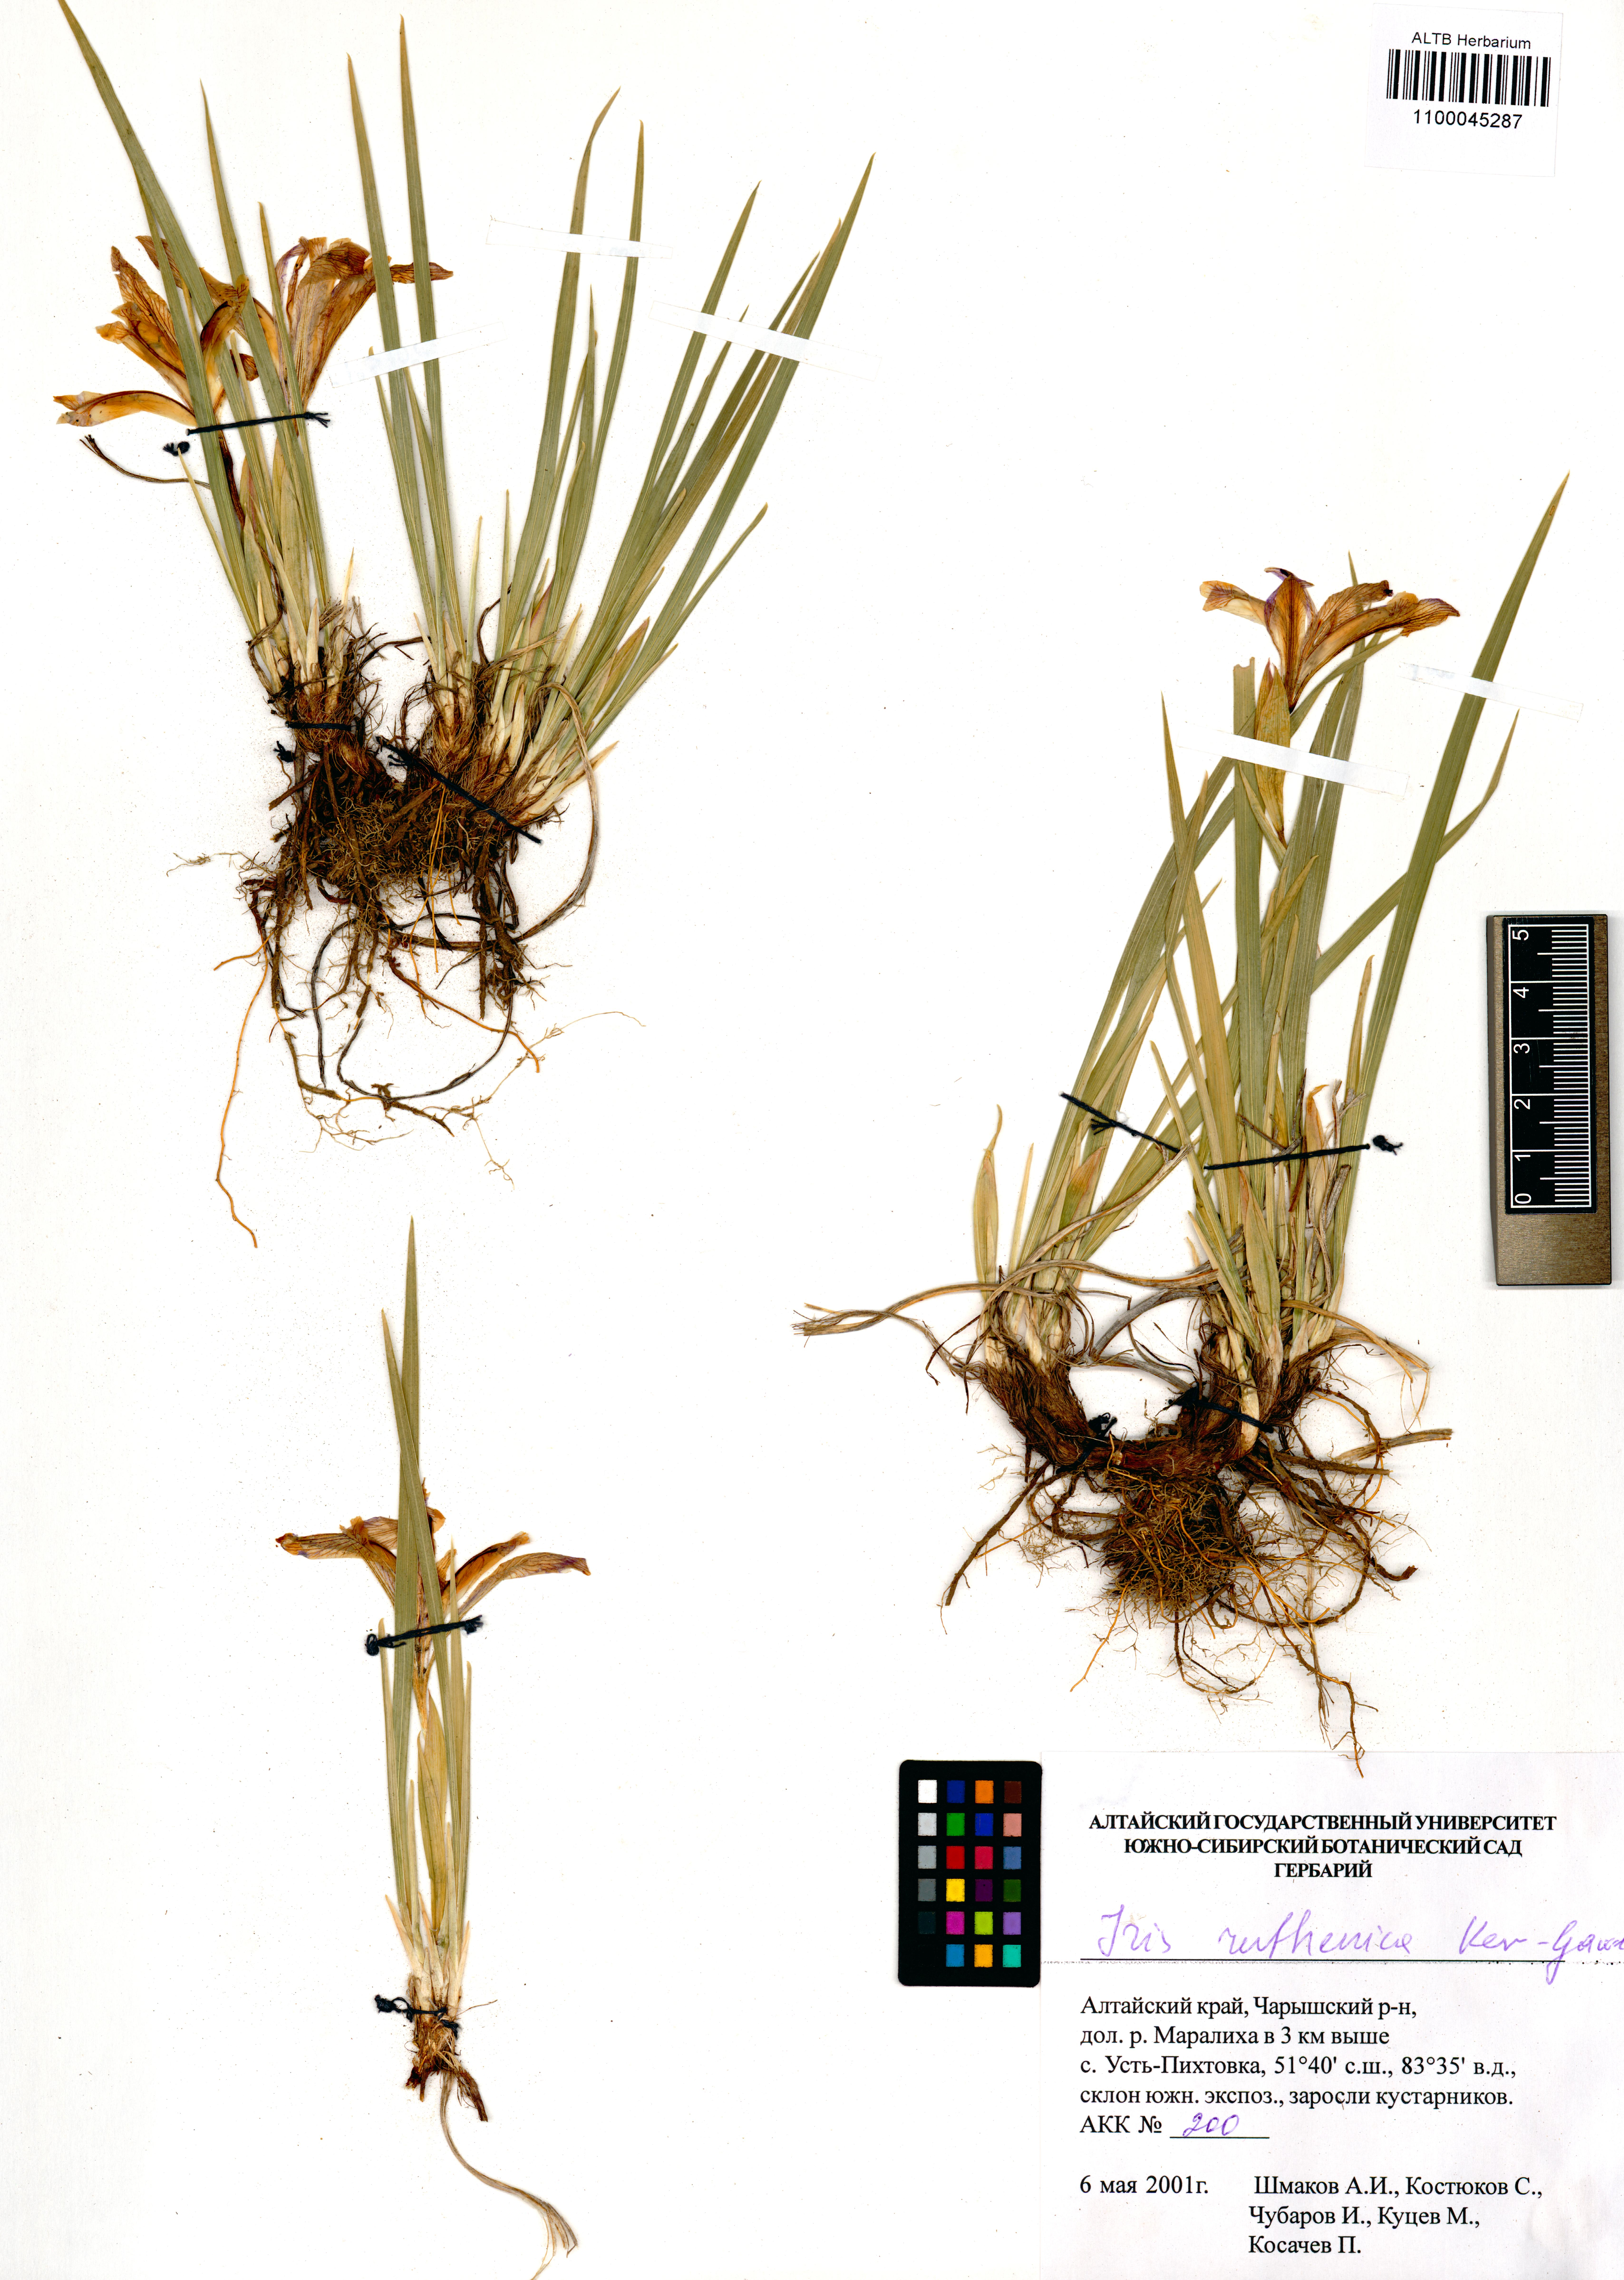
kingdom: Plantae
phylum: Tracheophyta
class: Liliopsida
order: Asparagales
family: Iridaceae
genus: Iris
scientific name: Iris ruthenica
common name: Purple-bract iris
